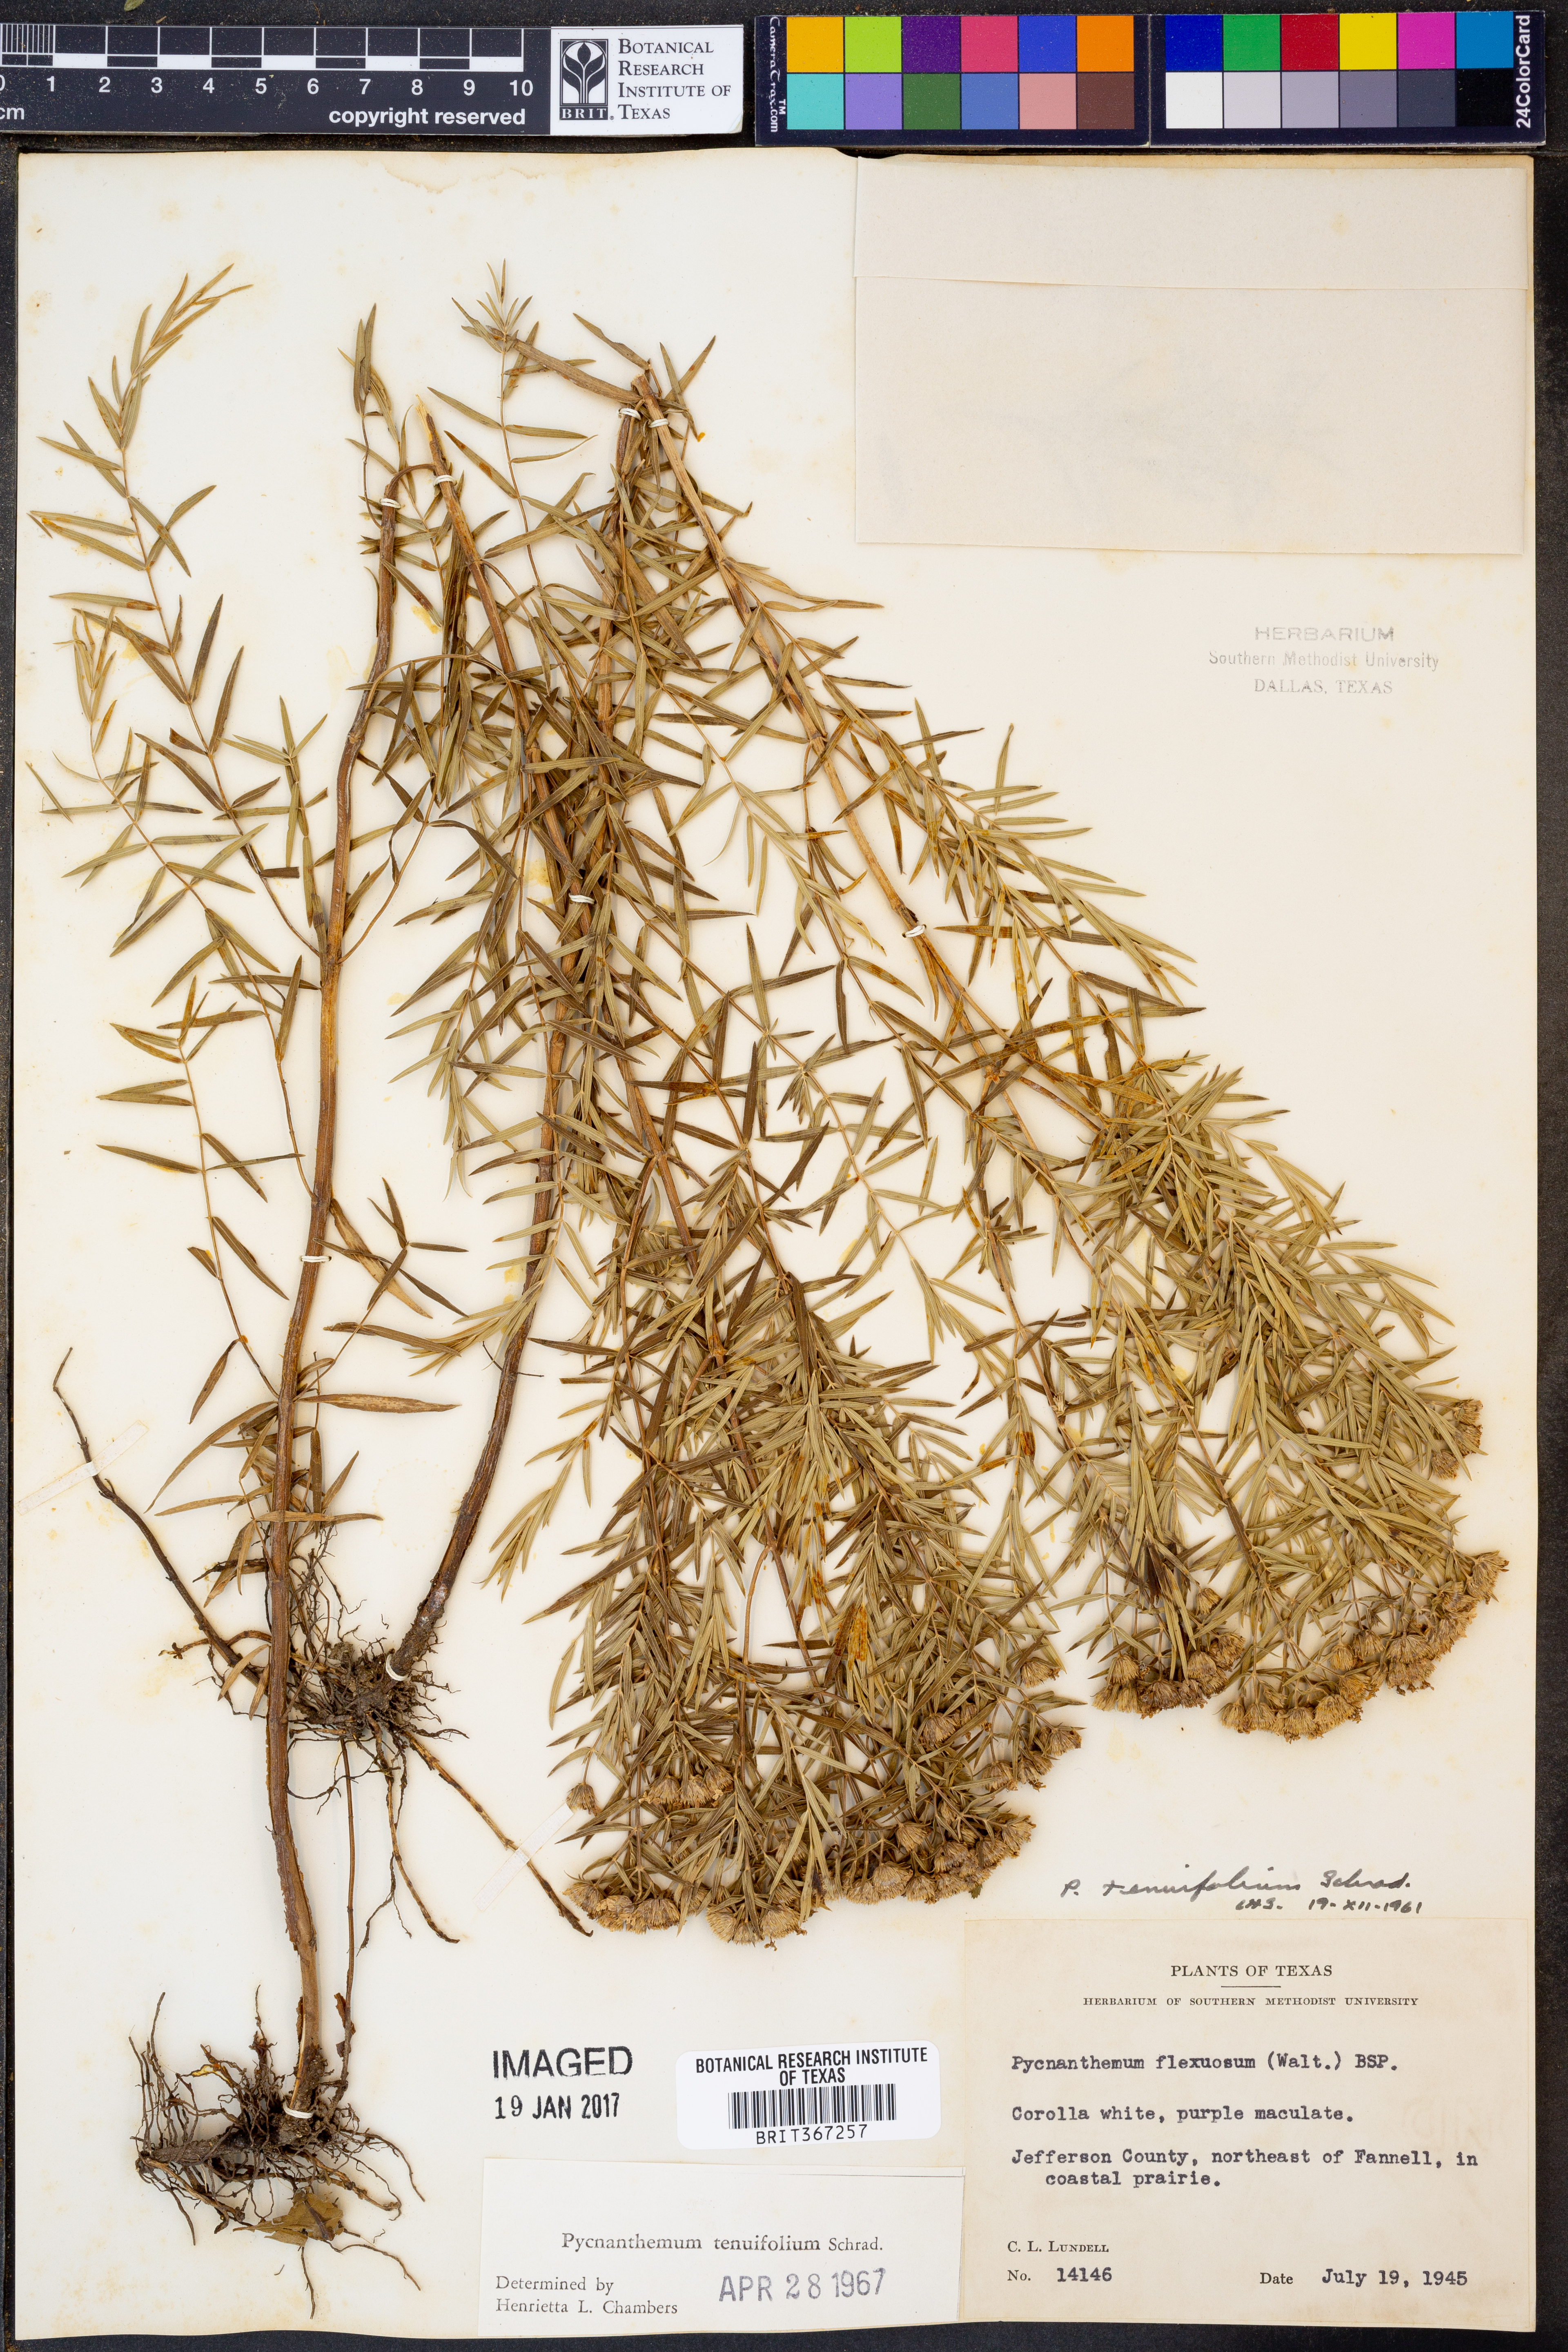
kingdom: Plantae
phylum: Tracheophyta
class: Magnoliopsida
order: Lamiales
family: Lamiaceae
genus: Pycnanthemum
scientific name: Pycnanthemum tenuifolium
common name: Narrow-leaf mountain-mint
